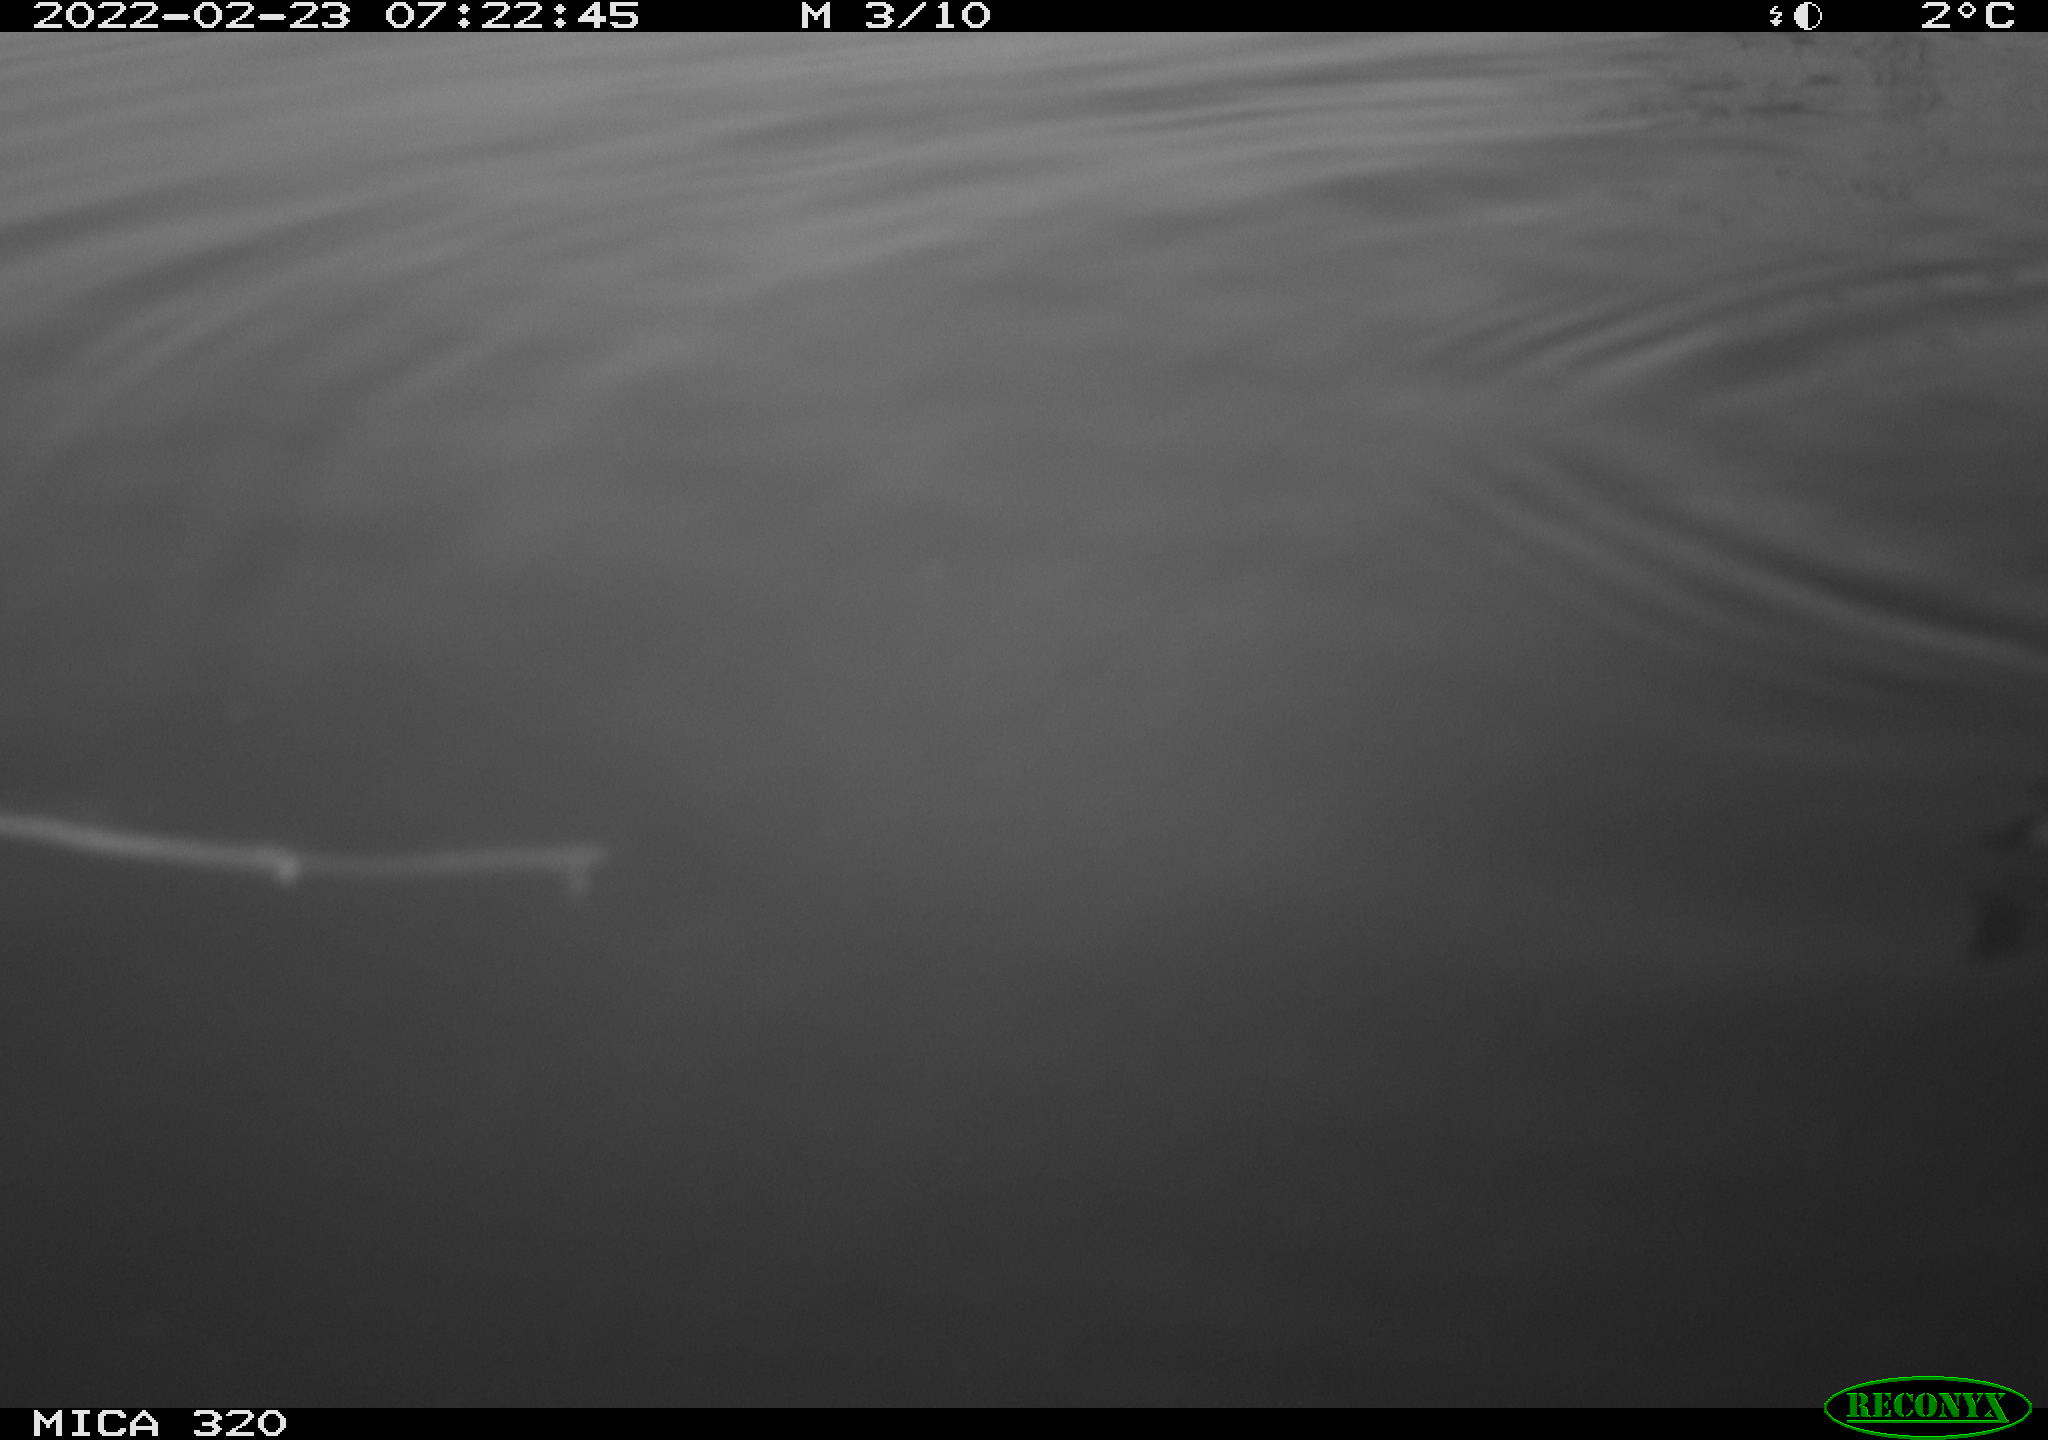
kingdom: Animalia
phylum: Chordata
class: Aves
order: Gruiformes
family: Rallidae
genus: Gallinula
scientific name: Gallinula chloropus
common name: Common moorhen
